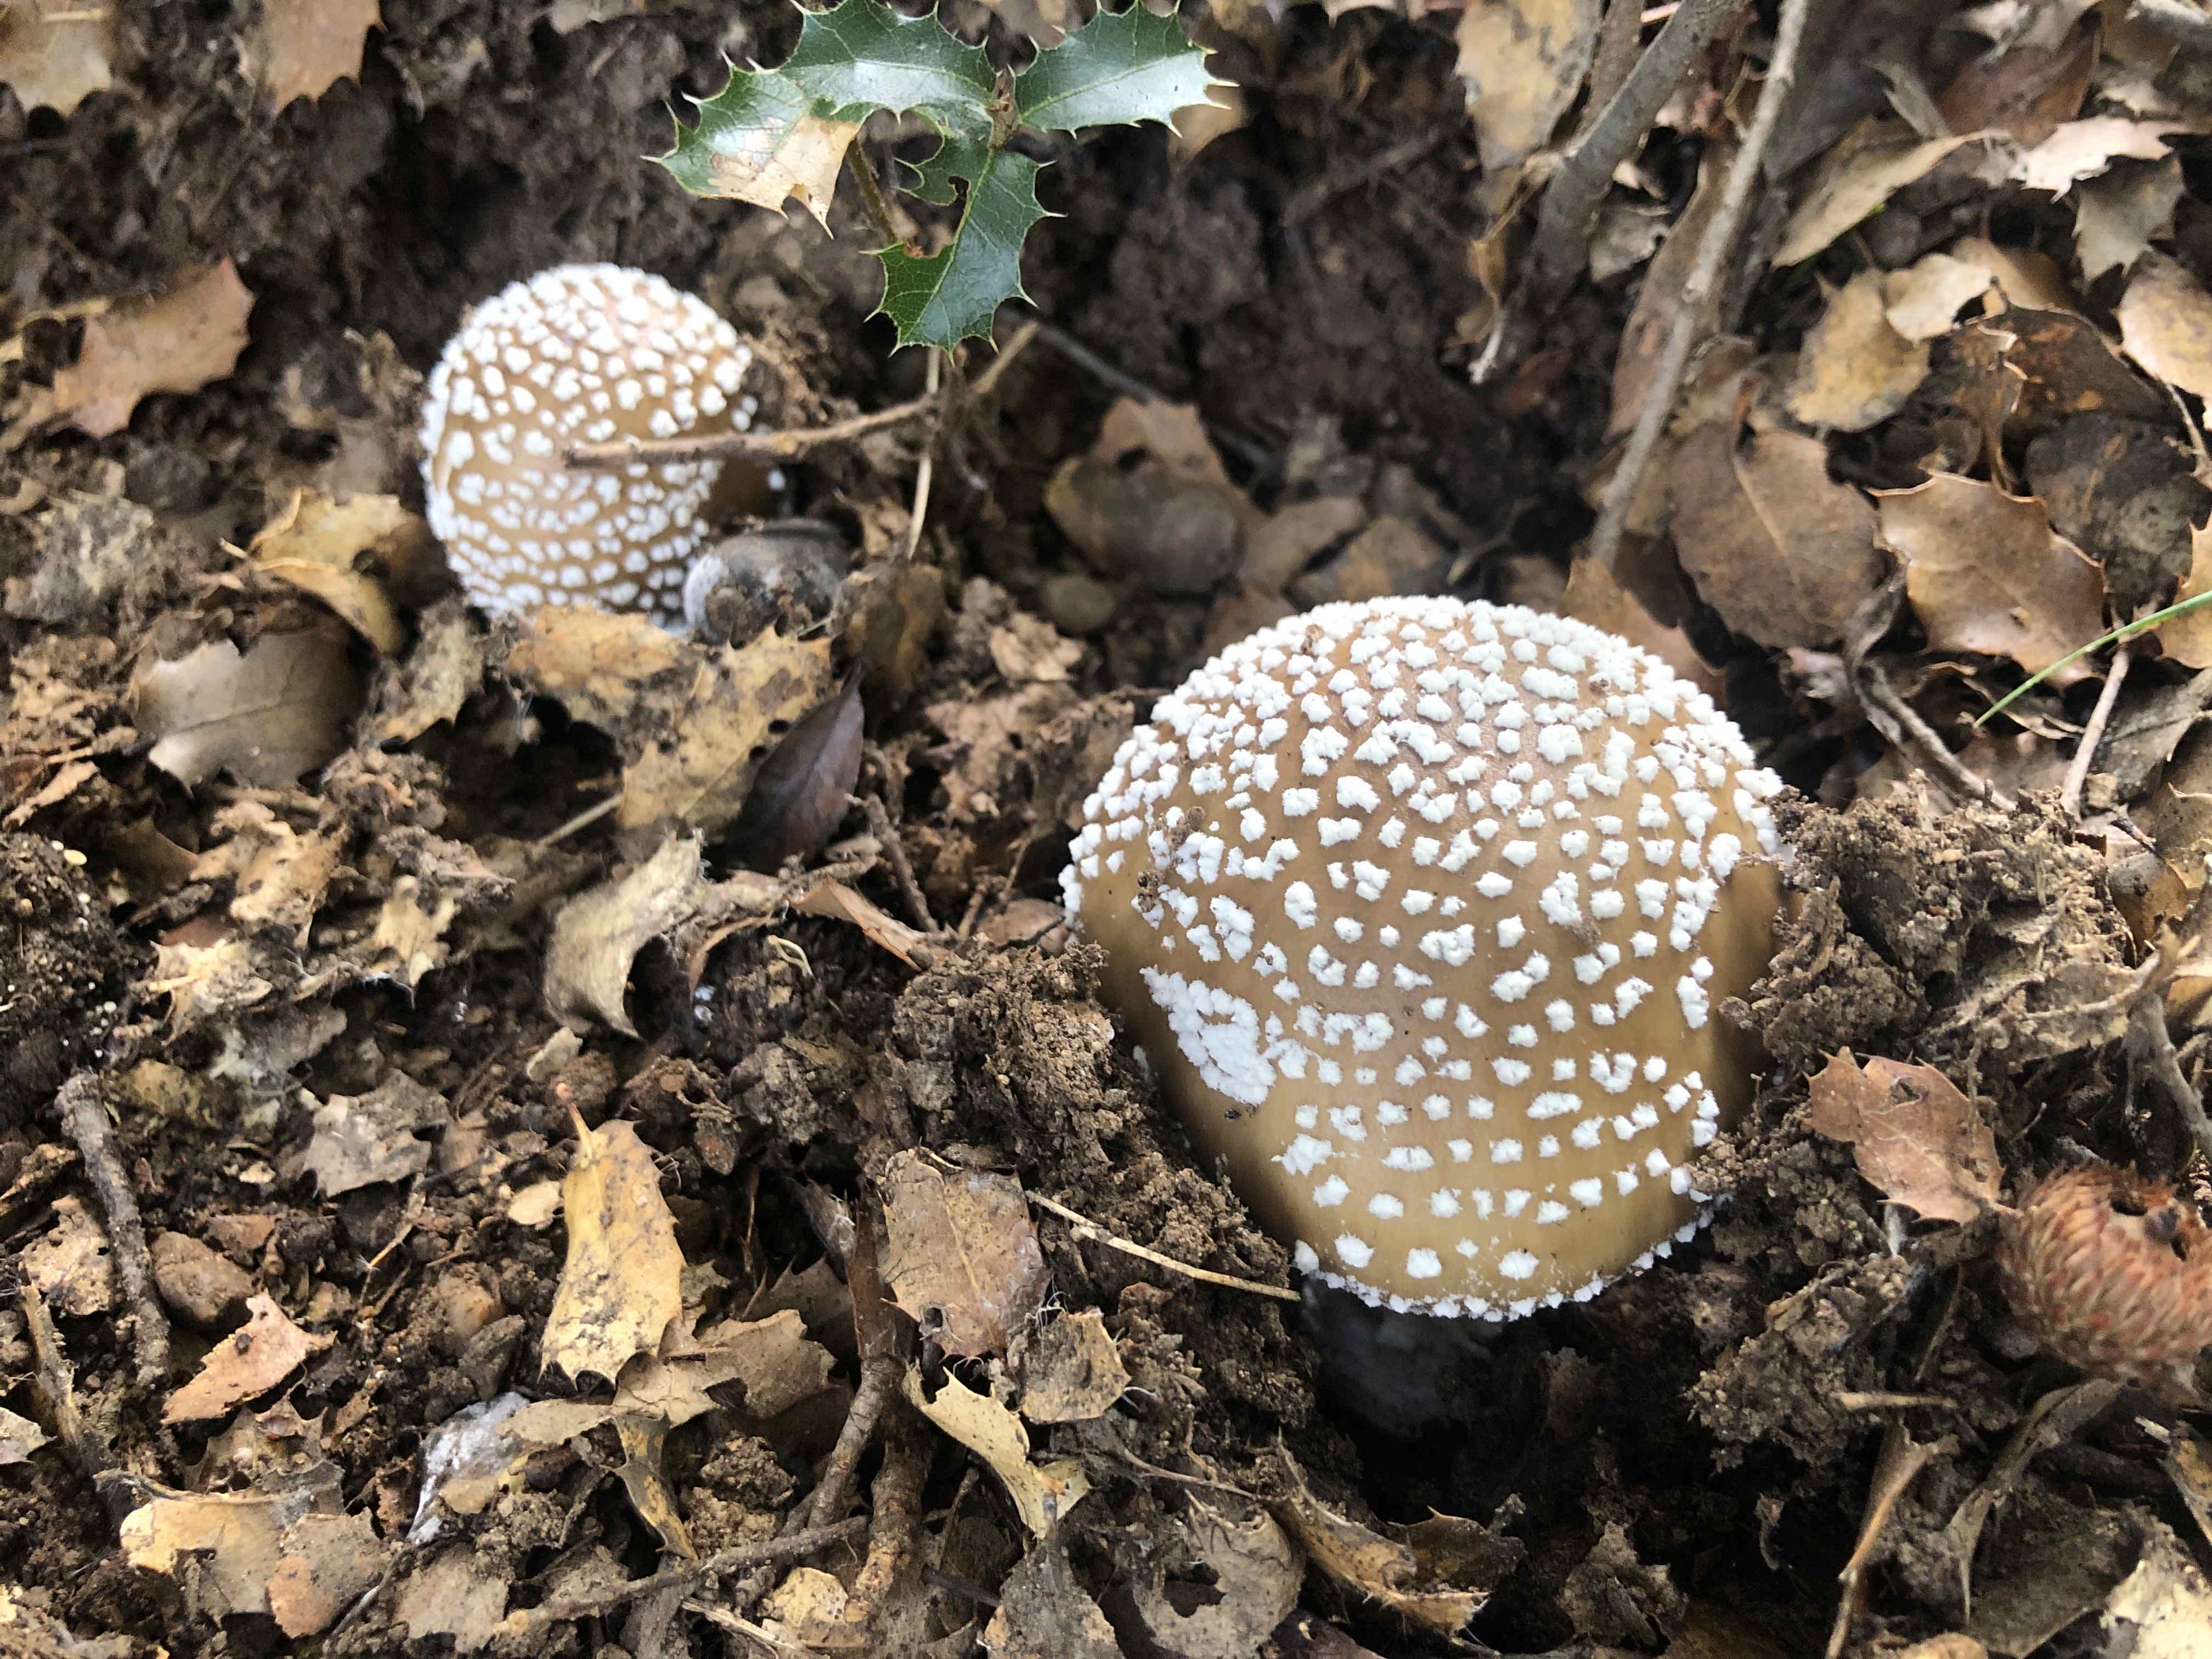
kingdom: Fungi
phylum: Basidiomycota
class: Agaricomycetes
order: Agaricales
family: Amanitaceae
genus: Amanita
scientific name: Amanita pantherina
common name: panter-fluesvamp
